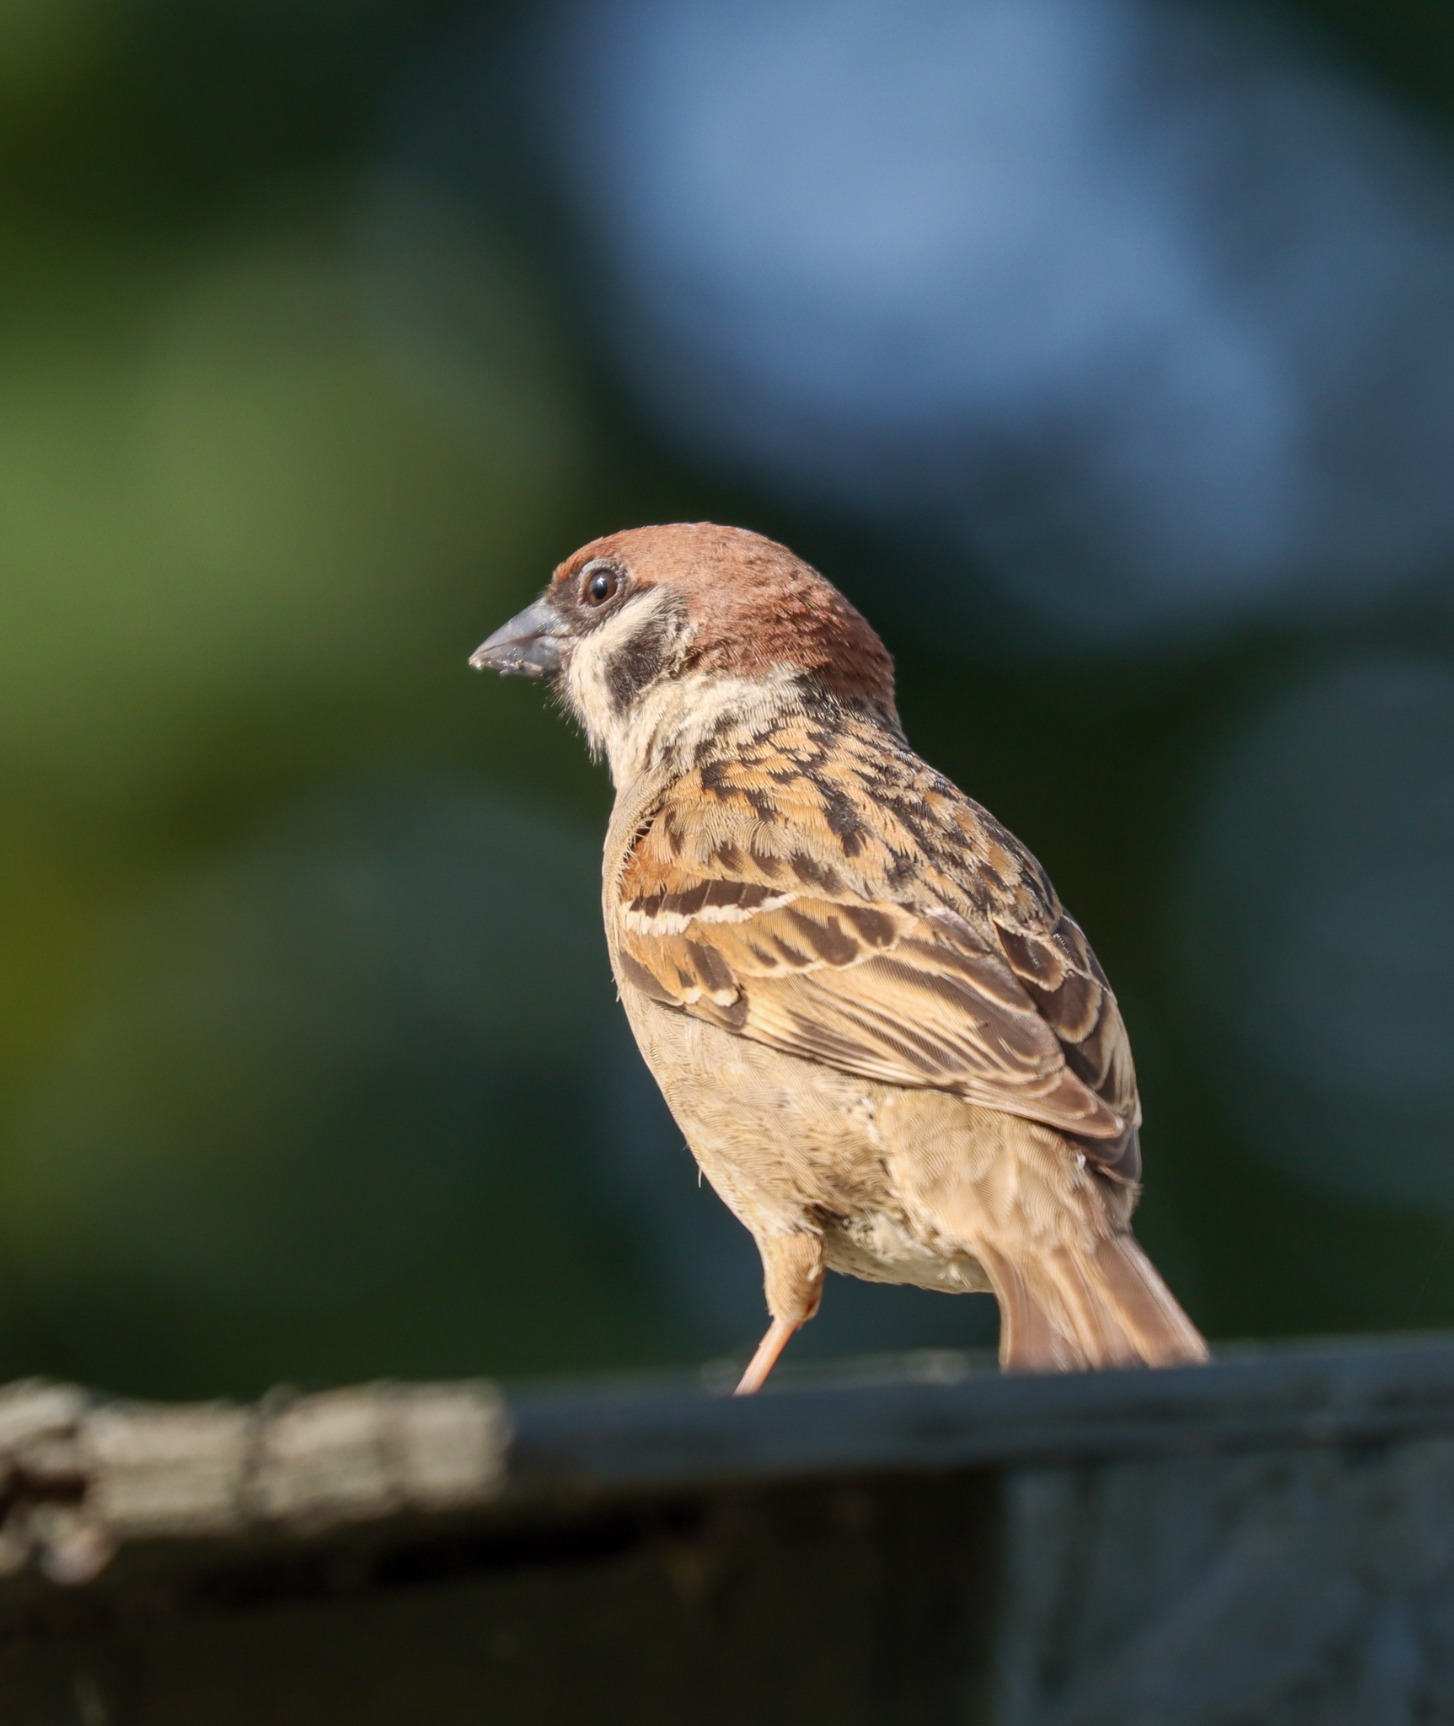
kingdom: Animalia
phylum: Chordata
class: Aves
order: Passeriformes
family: Passeridae
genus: Passer
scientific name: Passer montanus
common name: Skovspurv
